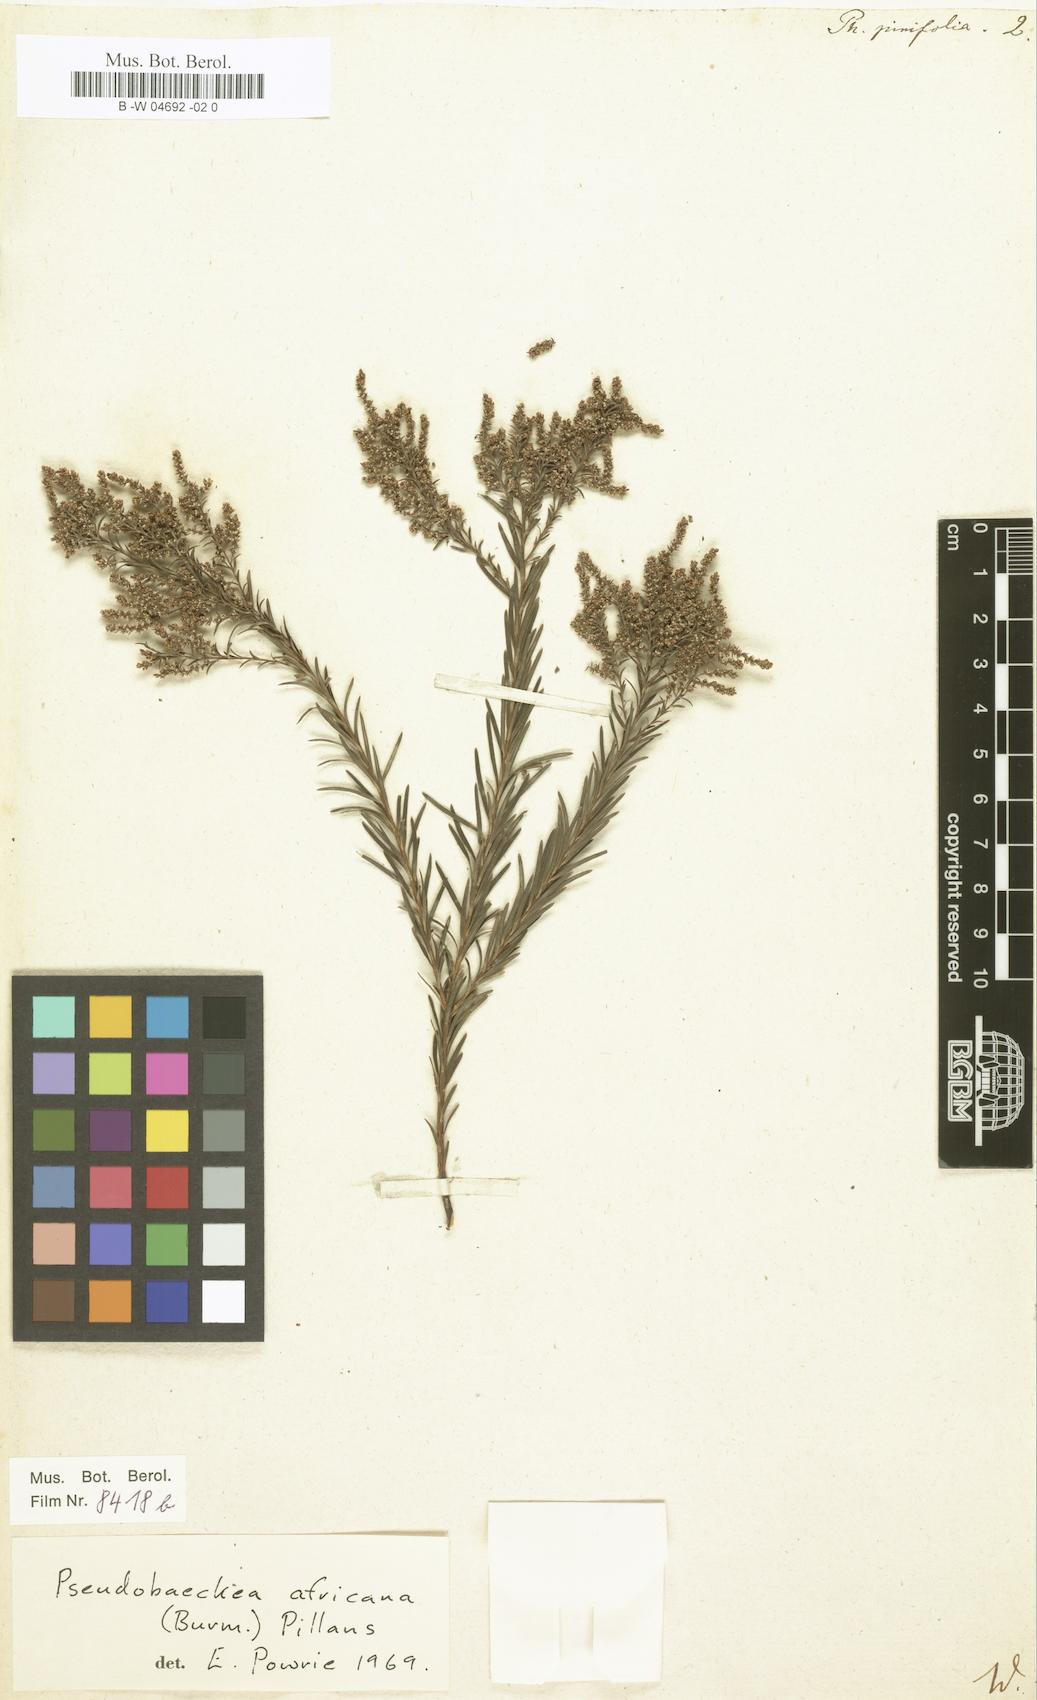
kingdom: Plantae
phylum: Tracheophyta
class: Magnoliopsida
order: Bruniales
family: Bruniaceae
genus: Brunia
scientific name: Brunia africana
